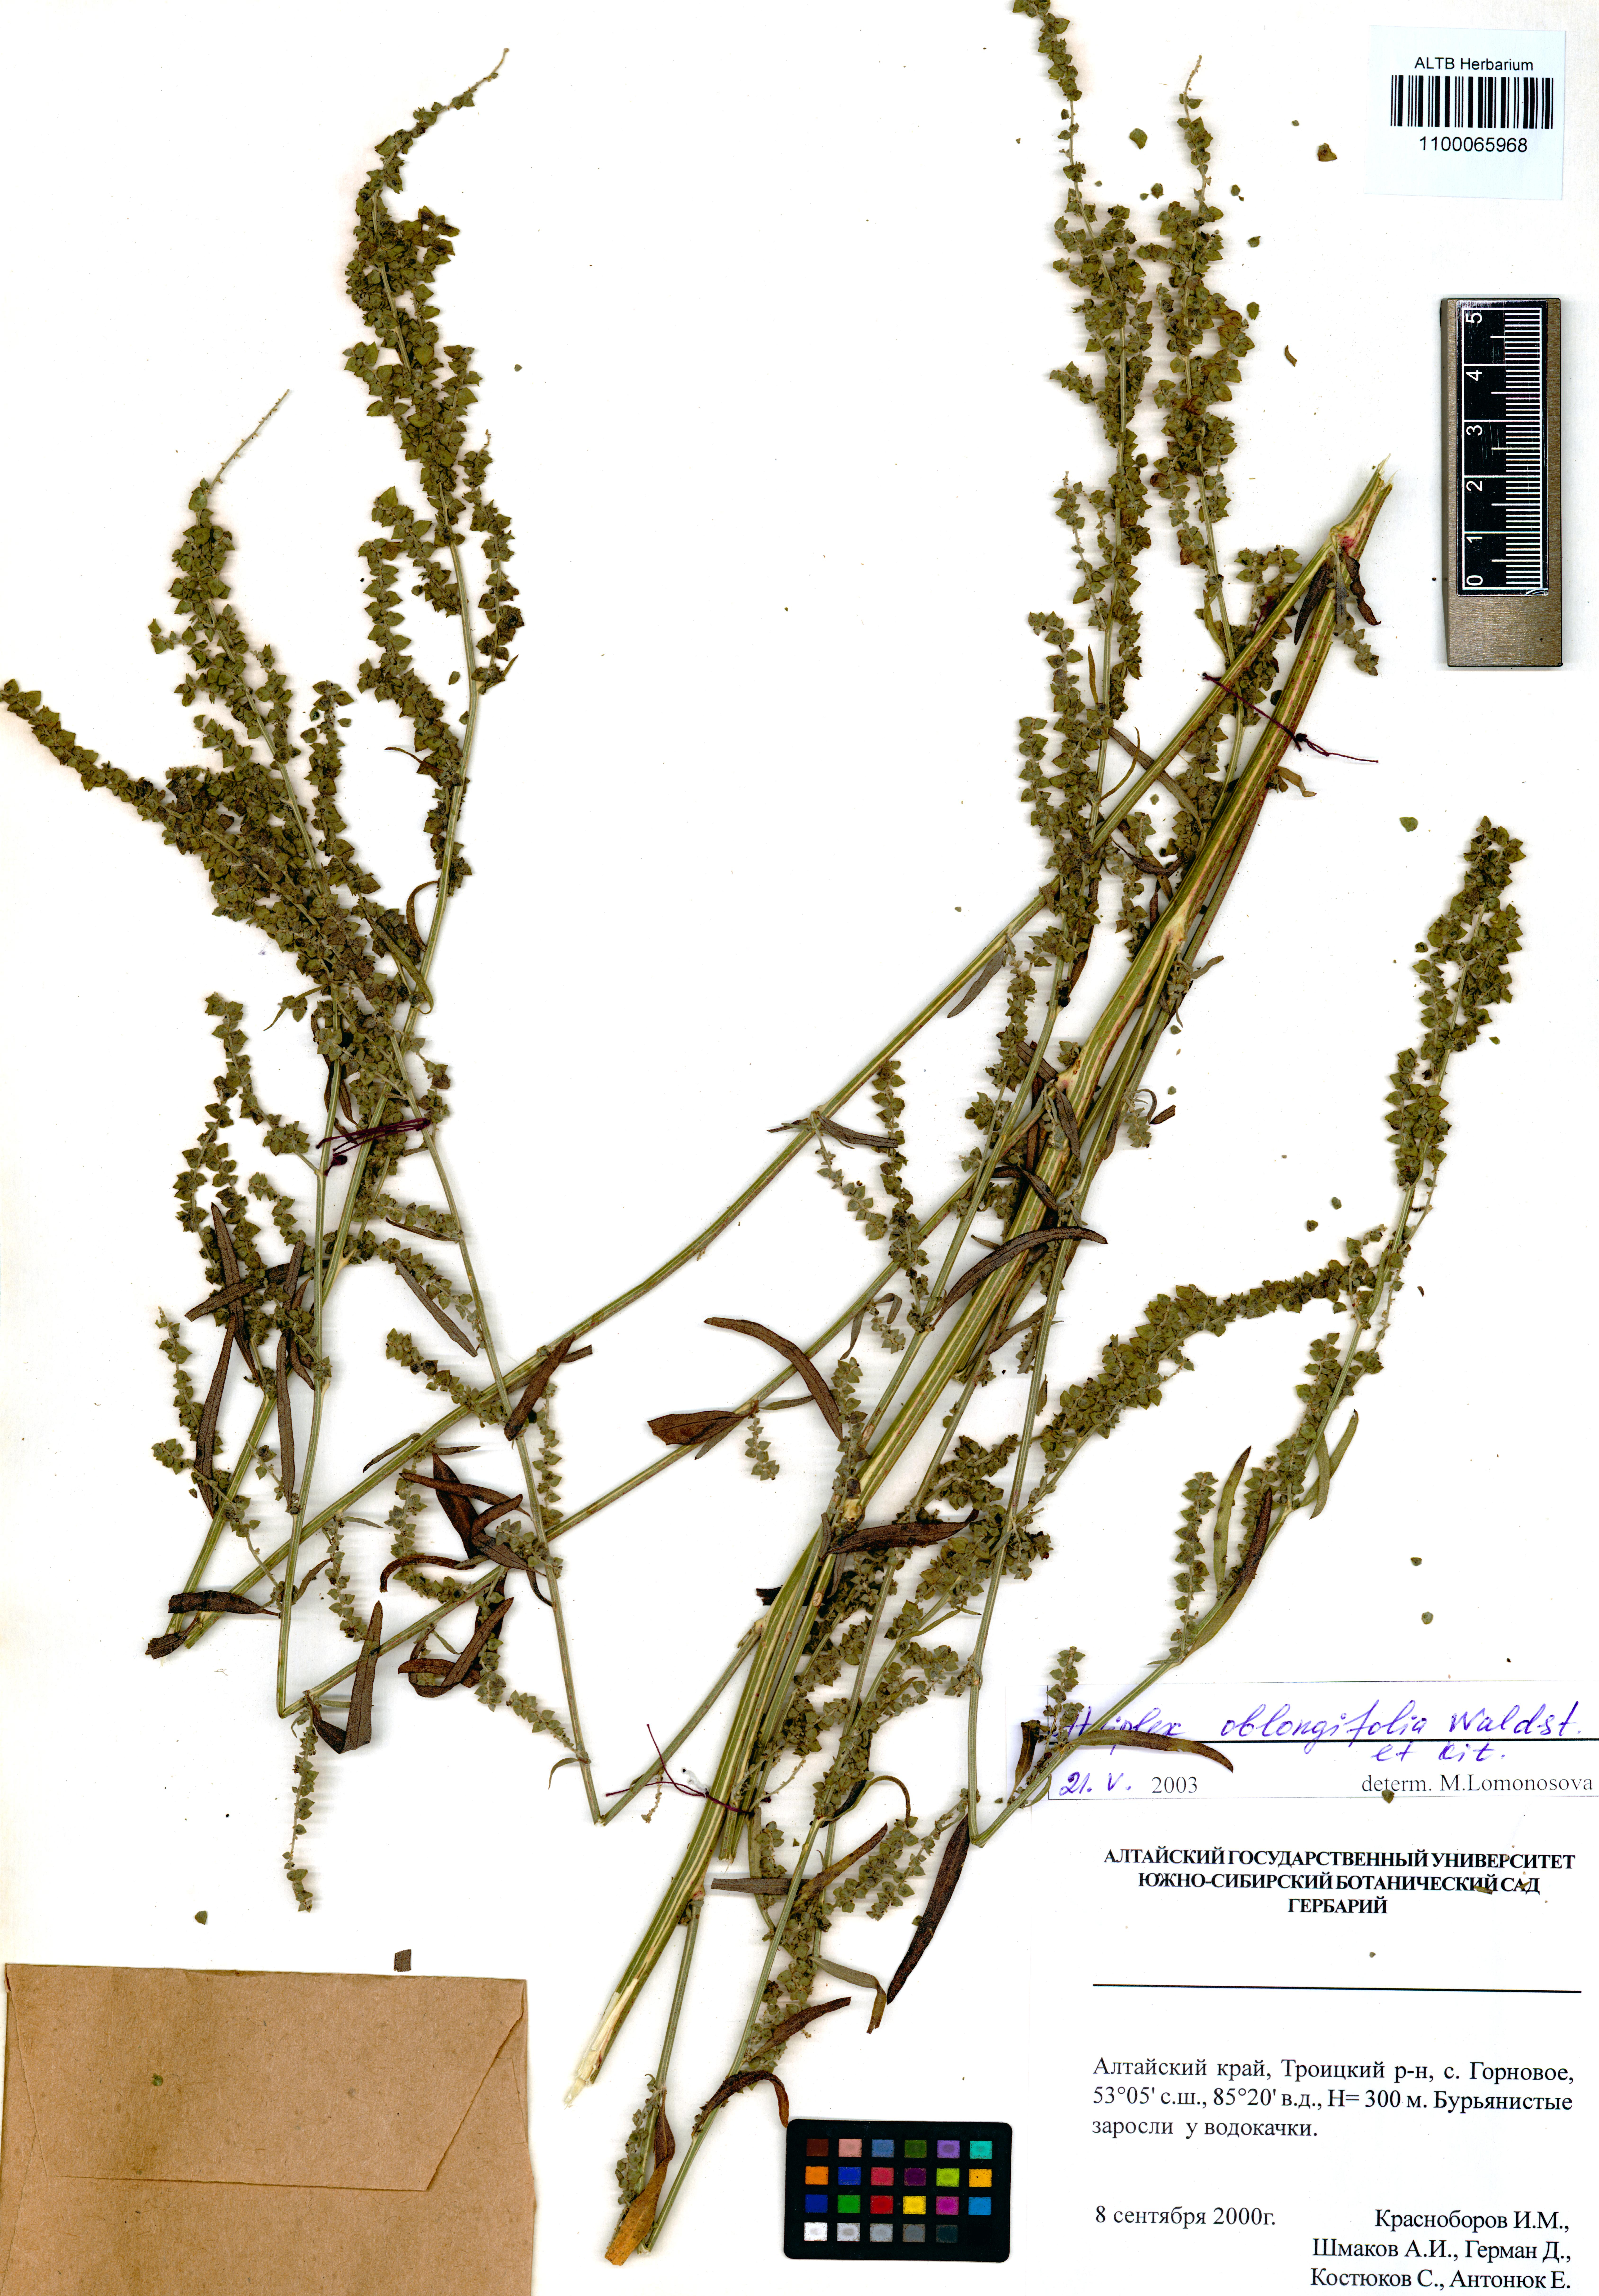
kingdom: Plantae
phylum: Tracheophyta
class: Magnoliopsida
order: Caryophyllales
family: Amaranthaceae
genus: Atriplex
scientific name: Atriplex oblongifolia
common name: Oblongleaf orache
